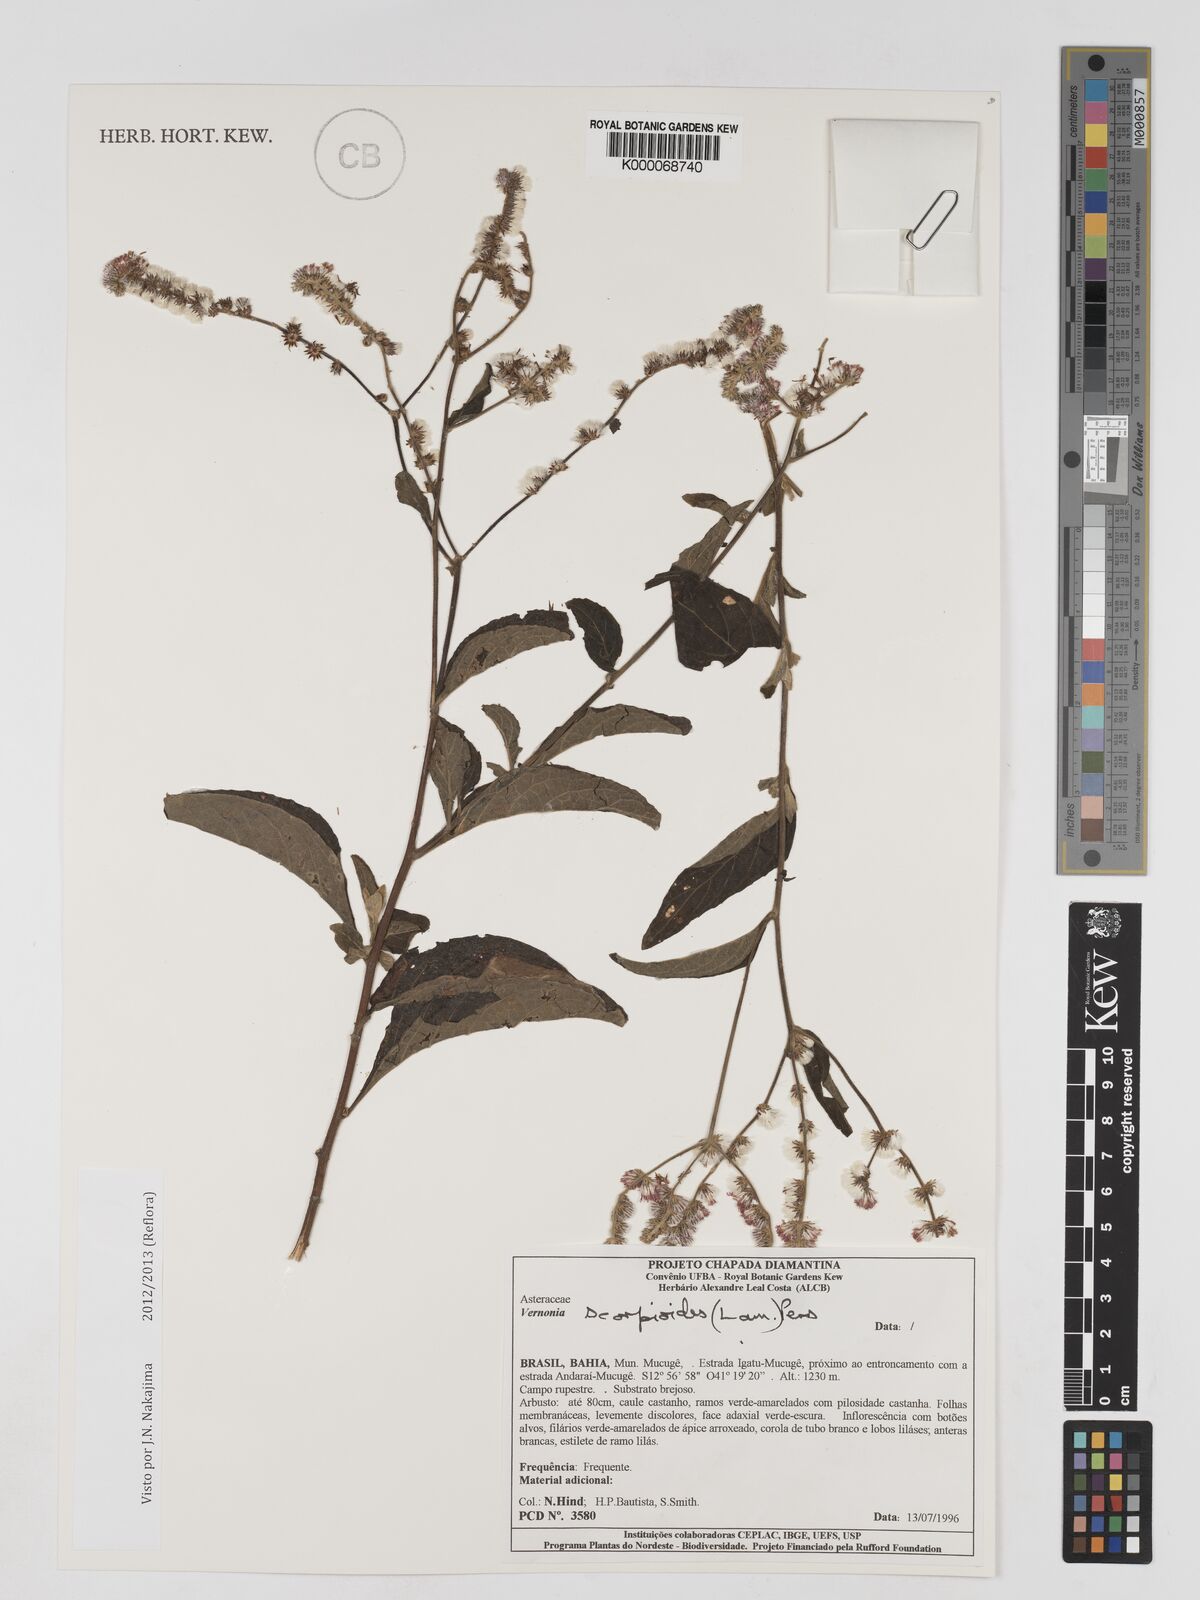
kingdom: Plantae
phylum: Tracheophyta
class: Magnoliopsida
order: Asterales
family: Asteraceae
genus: Cyrtocymura
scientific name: Cyrtocymura scorpioides
